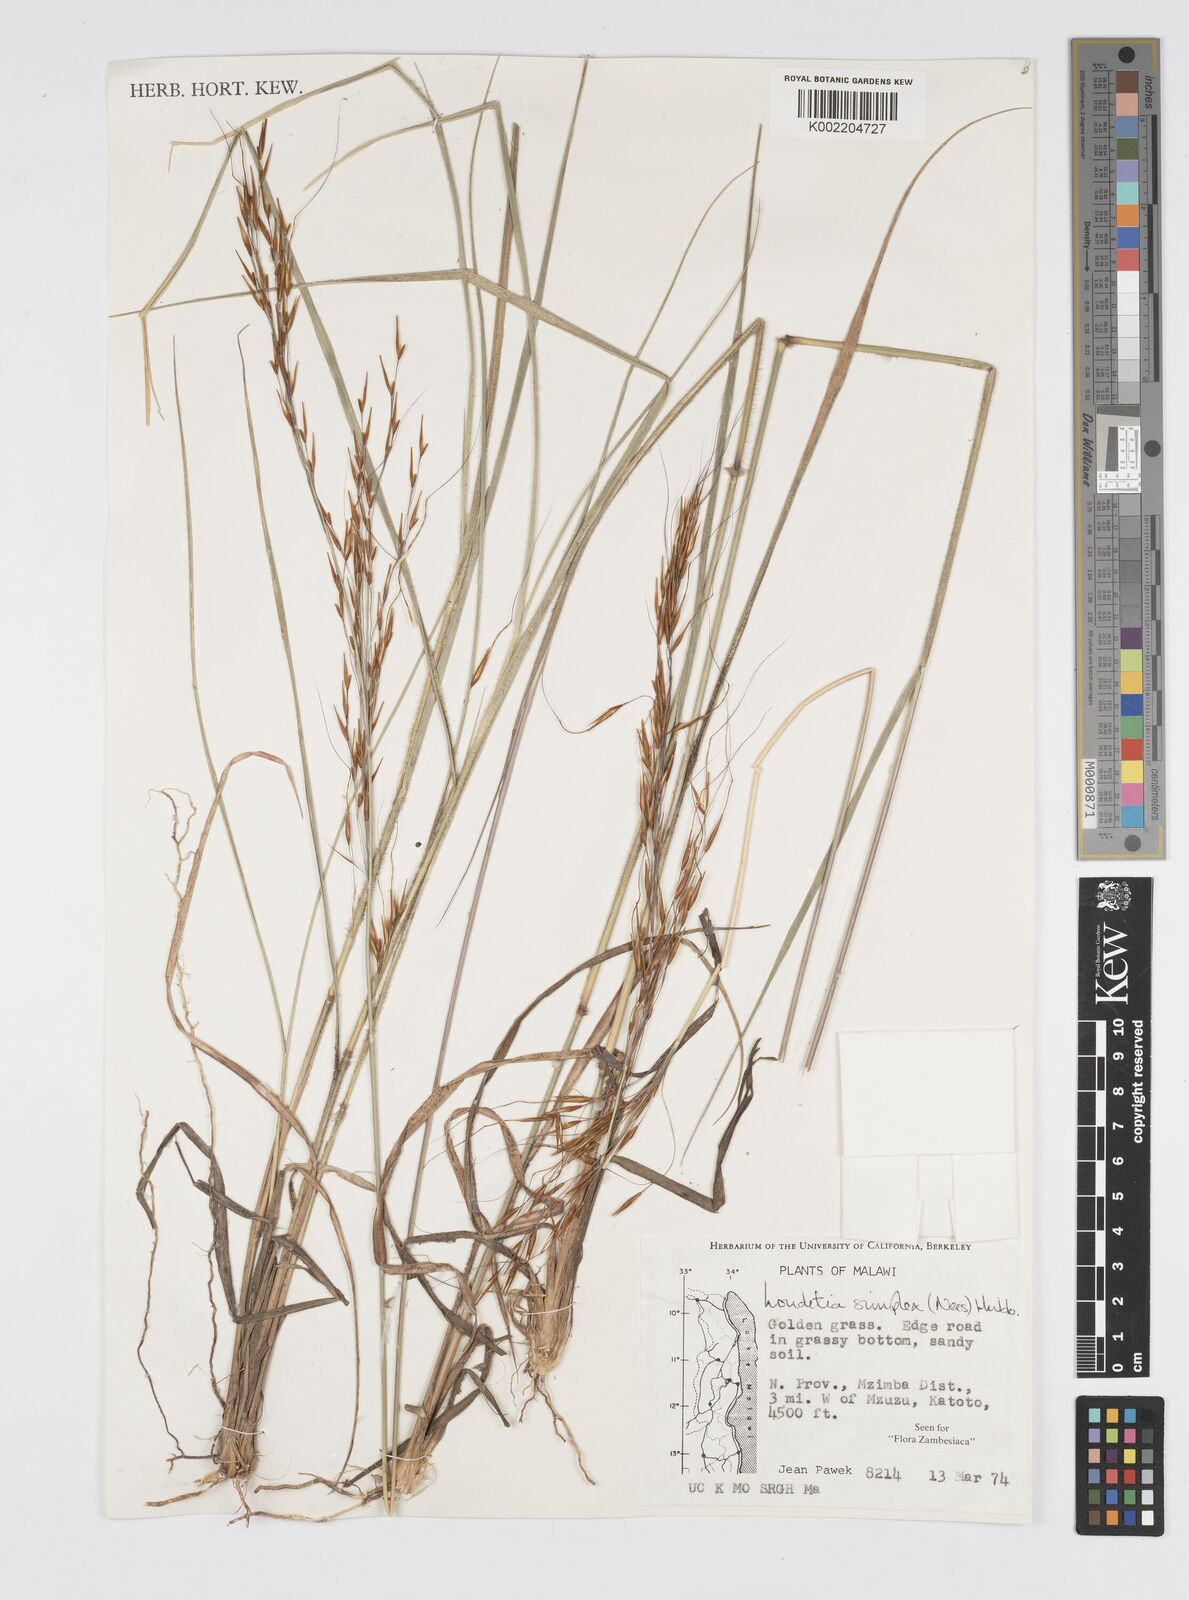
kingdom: Plantae
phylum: Tracheophyta
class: Liliopsida
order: Poales
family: Poaceae
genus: Loudetia
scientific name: Loudetia simplex
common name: Common russet grass
